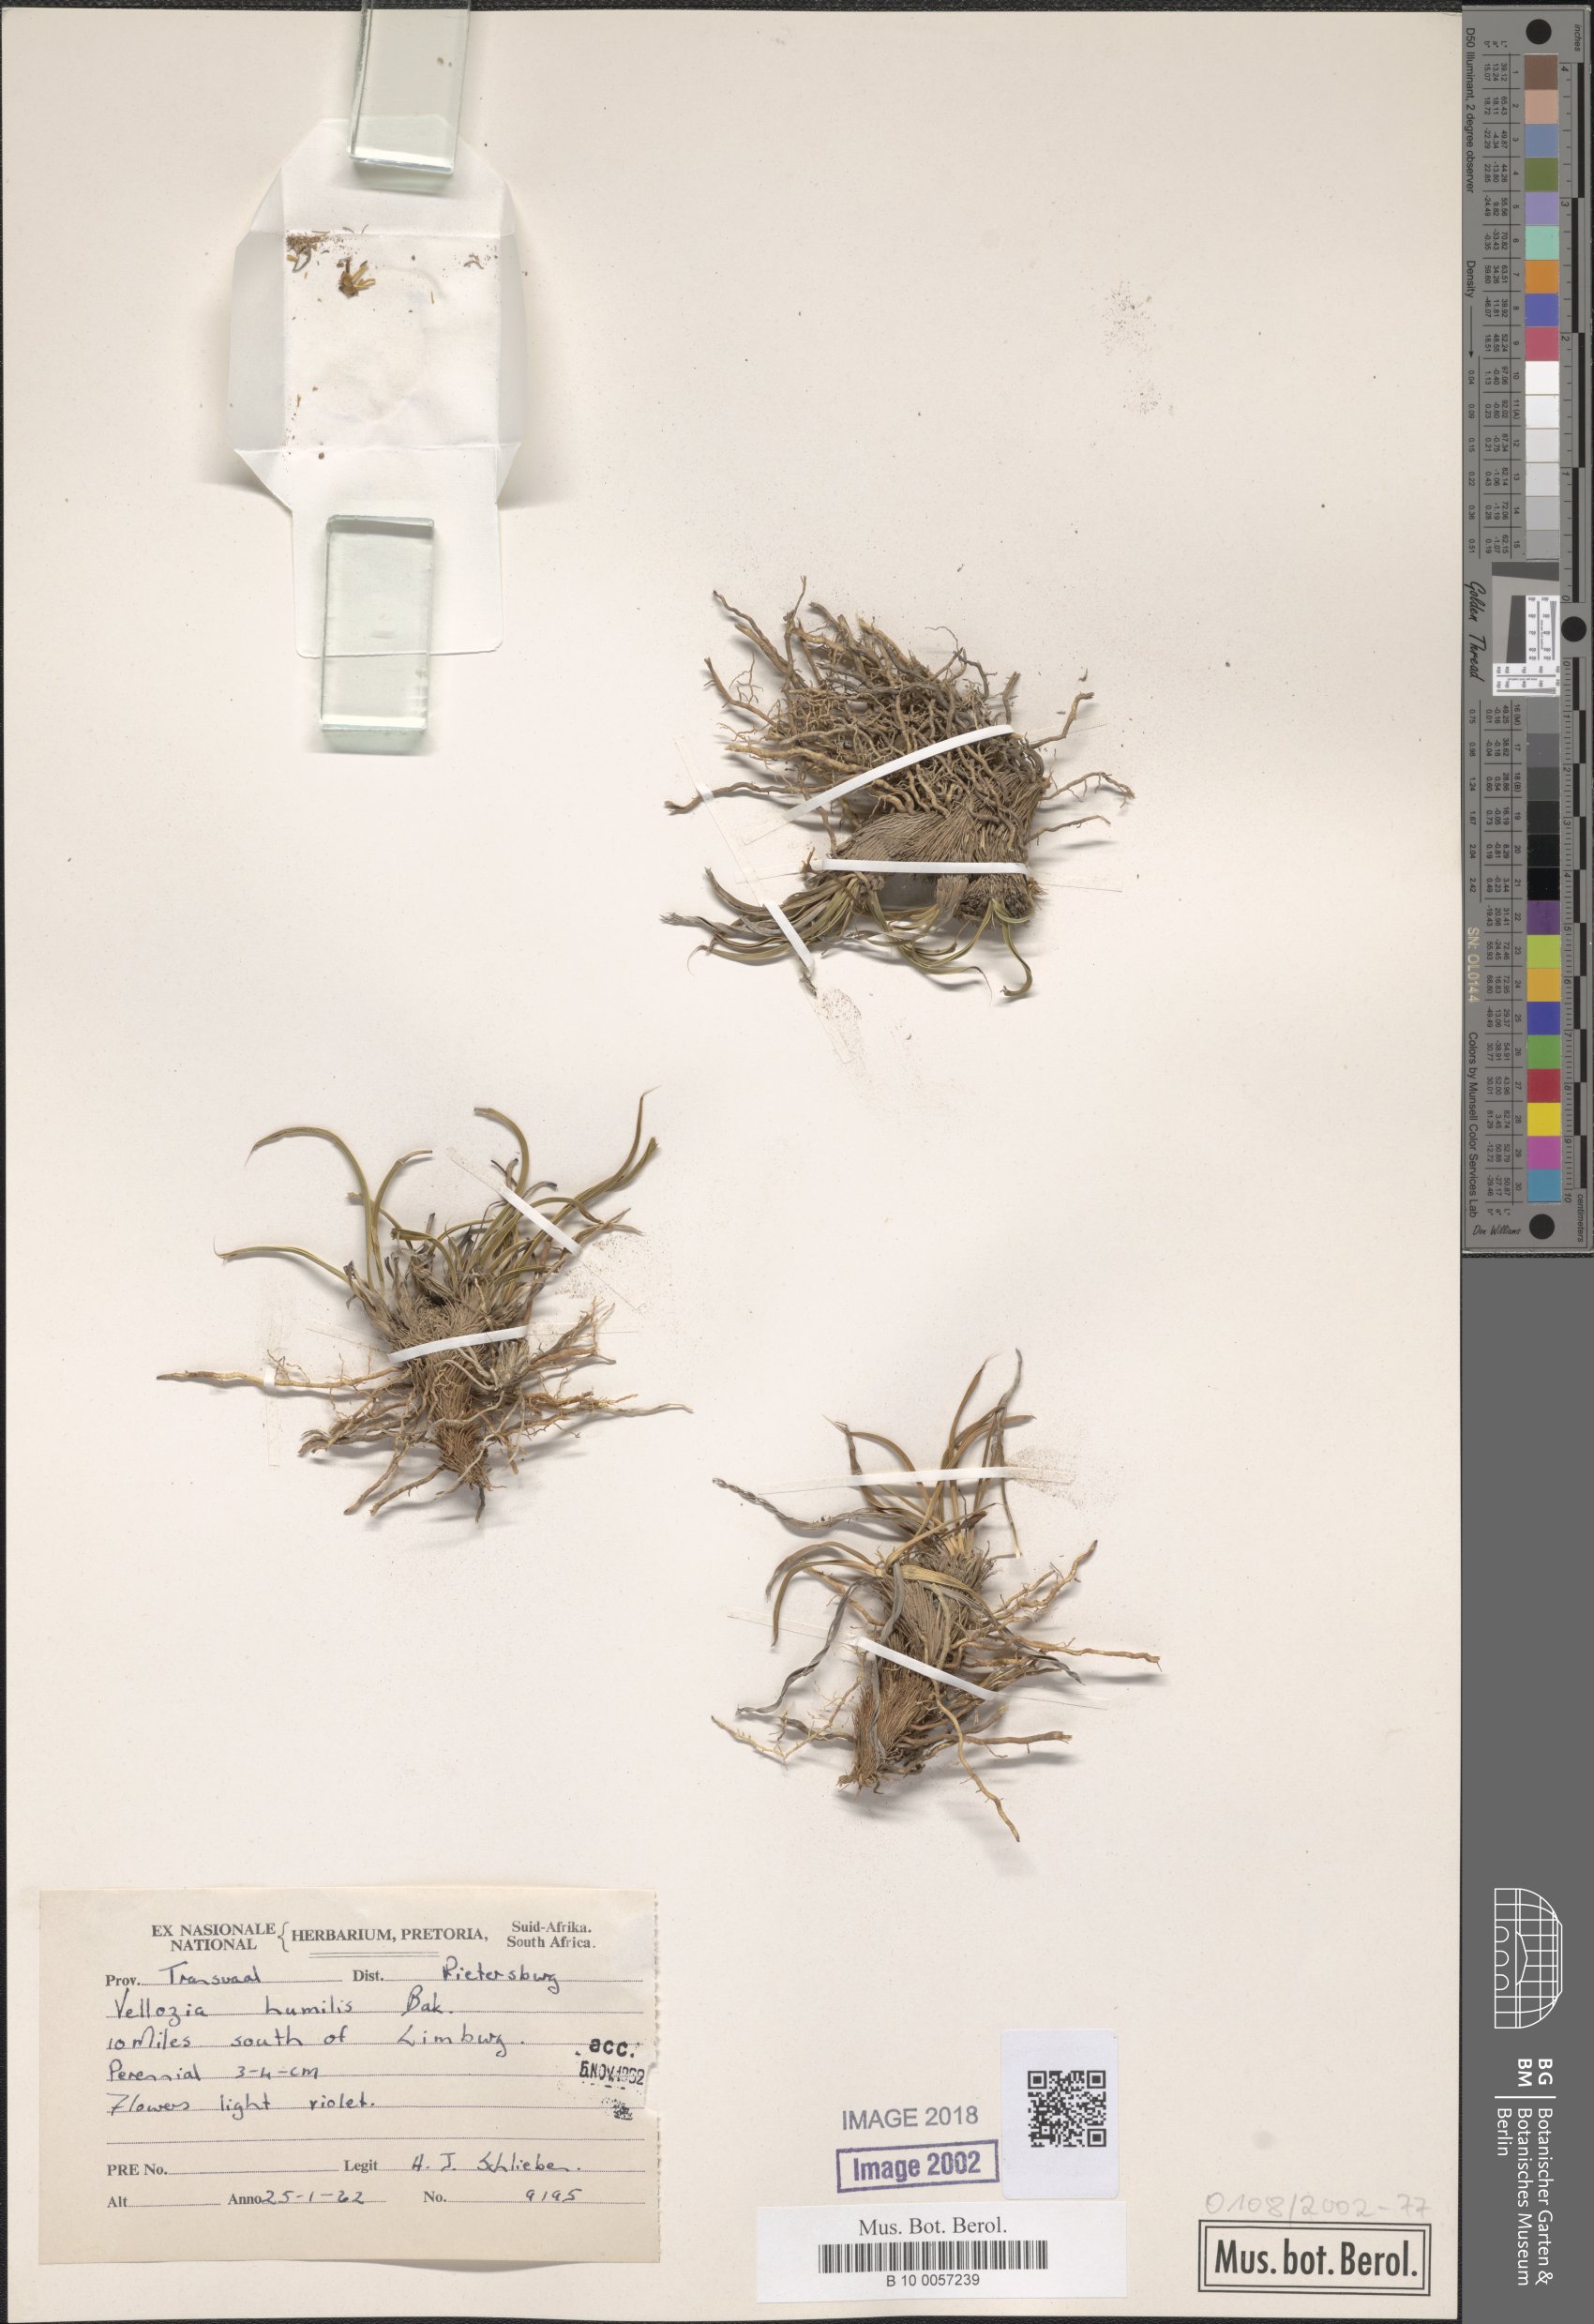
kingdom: Plantae
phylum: Tracheophyta
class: Liliopsida
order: Pandanales
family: Velloziaceae
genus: Xerophyta
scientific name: Xerophyta humilis
